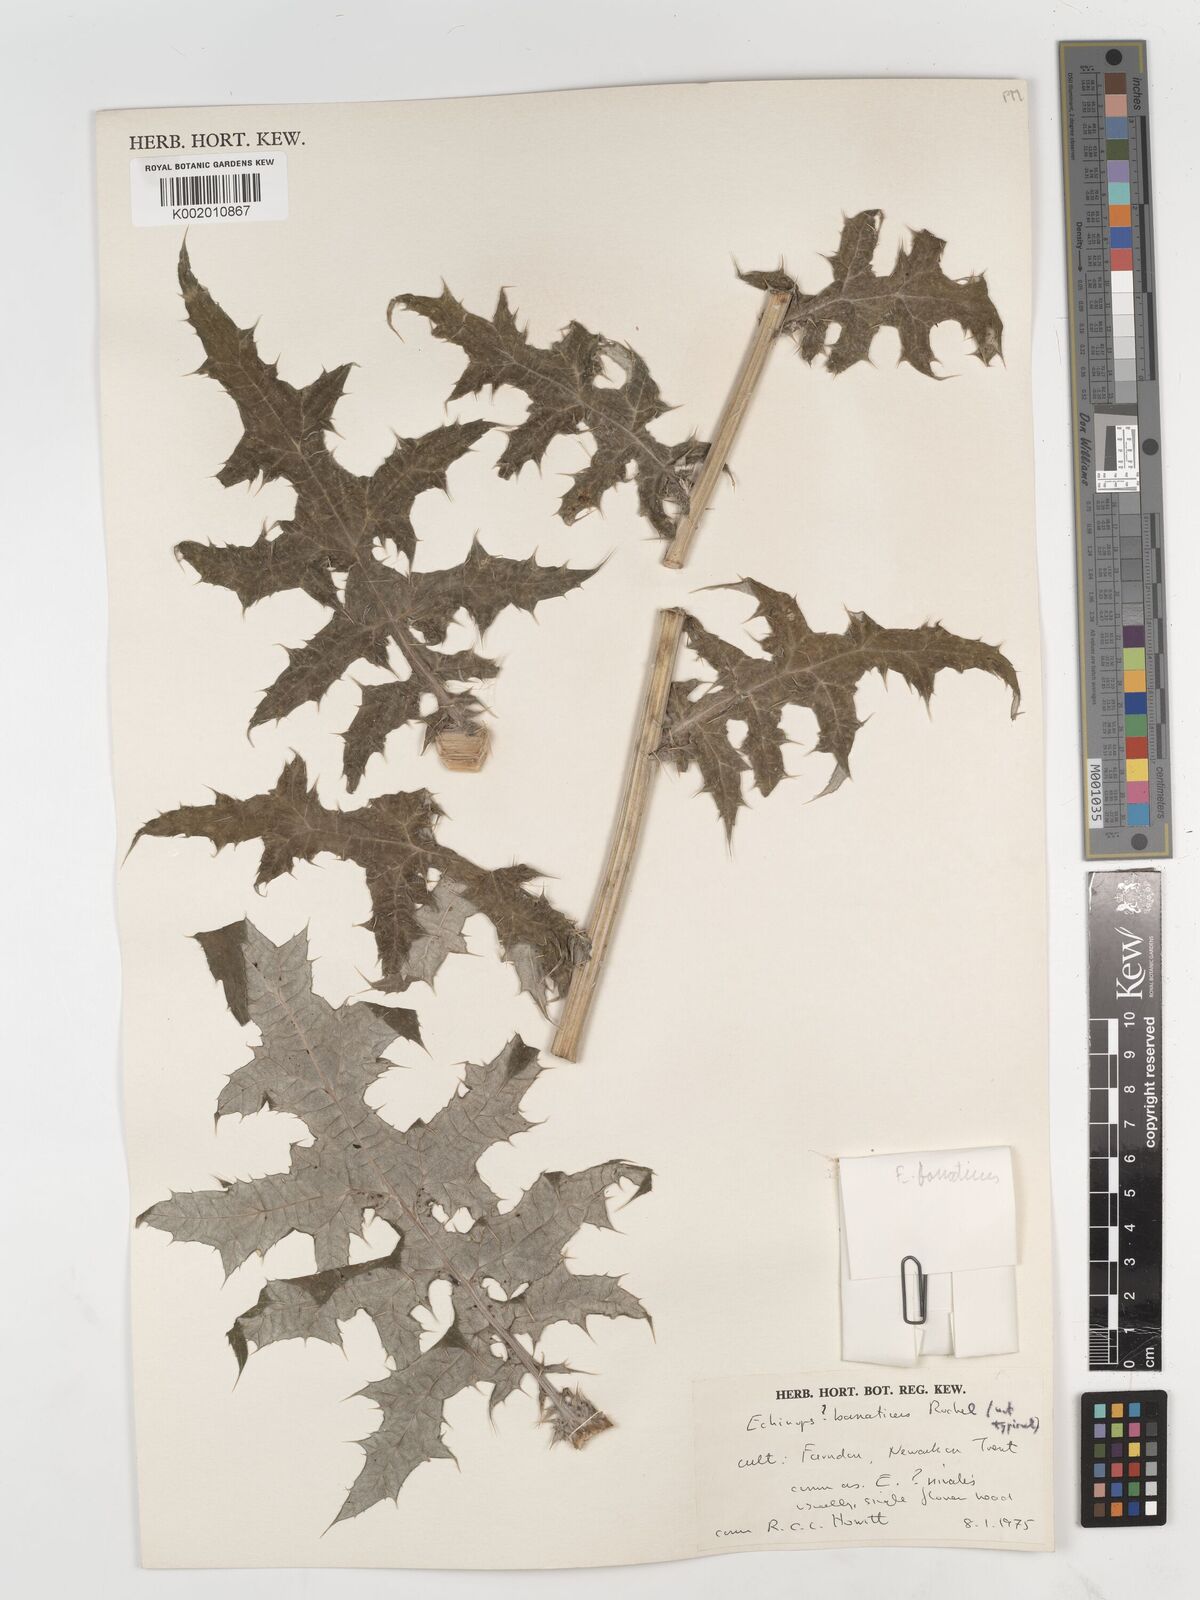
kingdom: Plantae
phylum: Tracheophyta
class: Magnoliopsida
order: Asterales
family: Asteraceae
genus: Echinops
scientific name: Echinops bannaticus
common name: Blue globe-thistle
